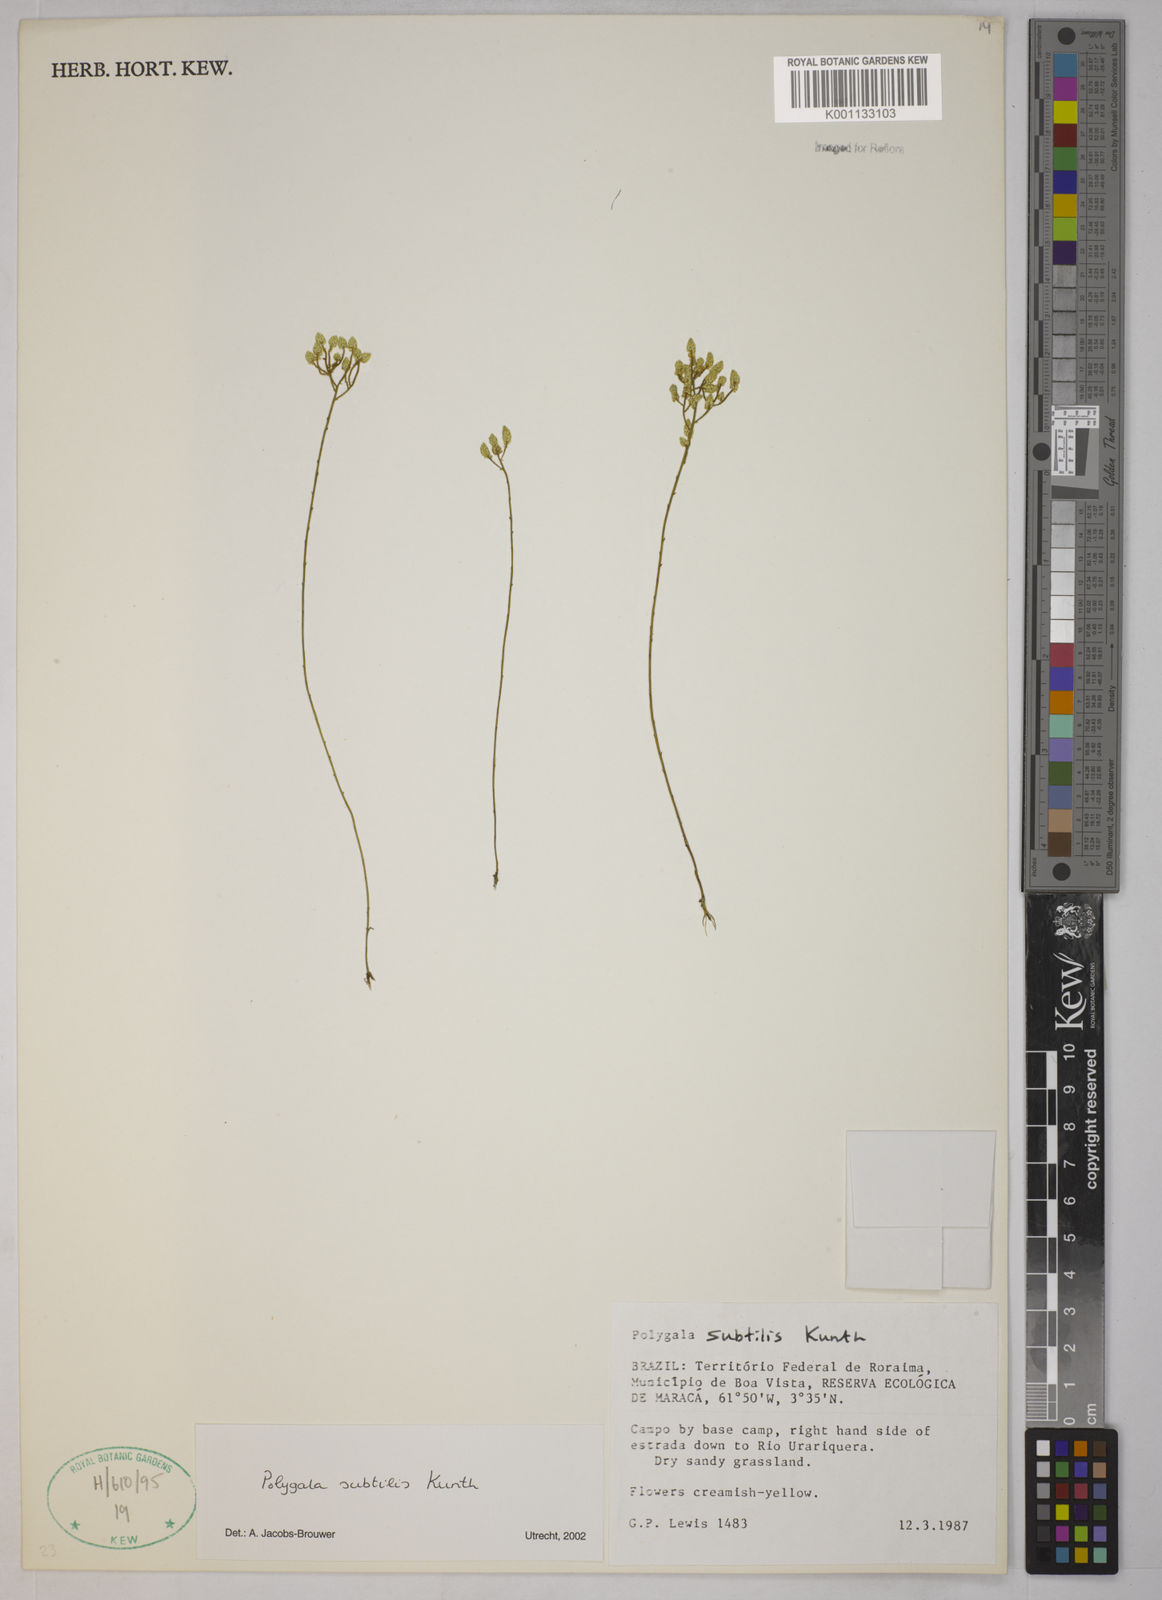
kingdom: Plantae
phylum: Tracheophyta
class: Magnoliopsida
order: Fabales
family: Polygalaceae
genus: Polygala
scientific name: Polygala subtilis
